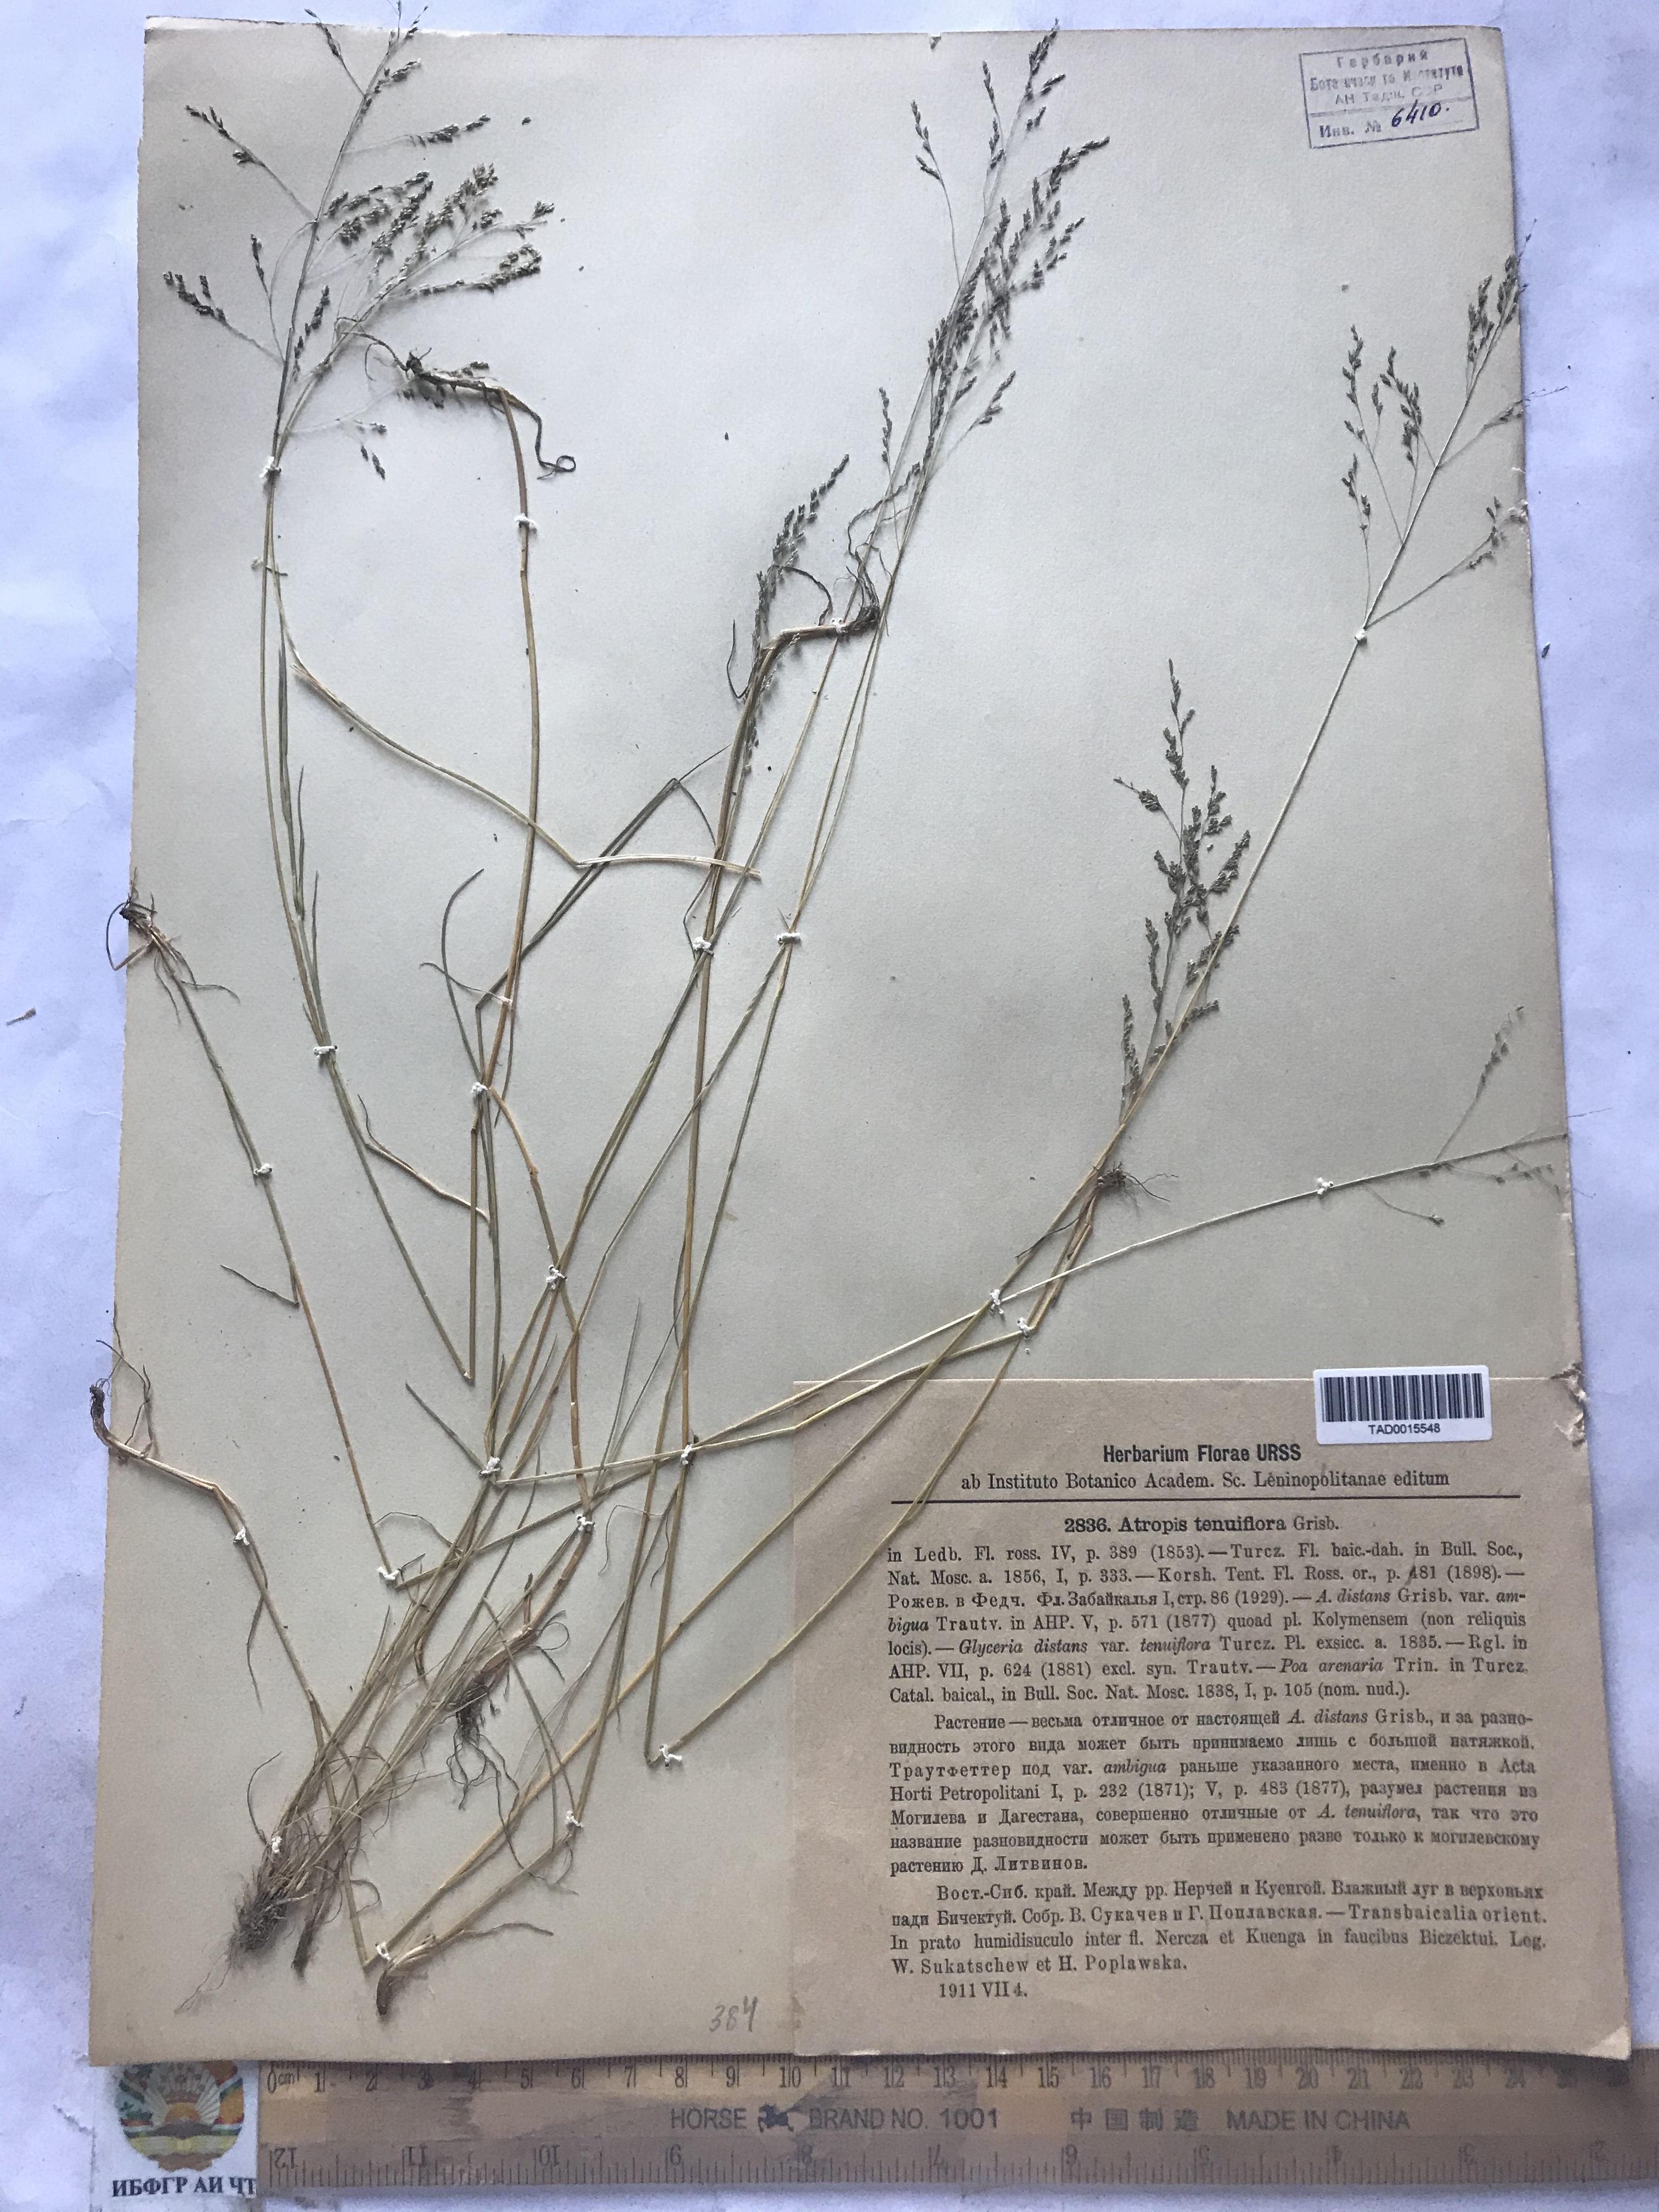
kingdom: Plantae
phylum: Tracheophyta
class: Liliopsida
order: Poales
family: Poaceae
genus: Puccinellia
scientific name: Puccinellia tenuiflora
